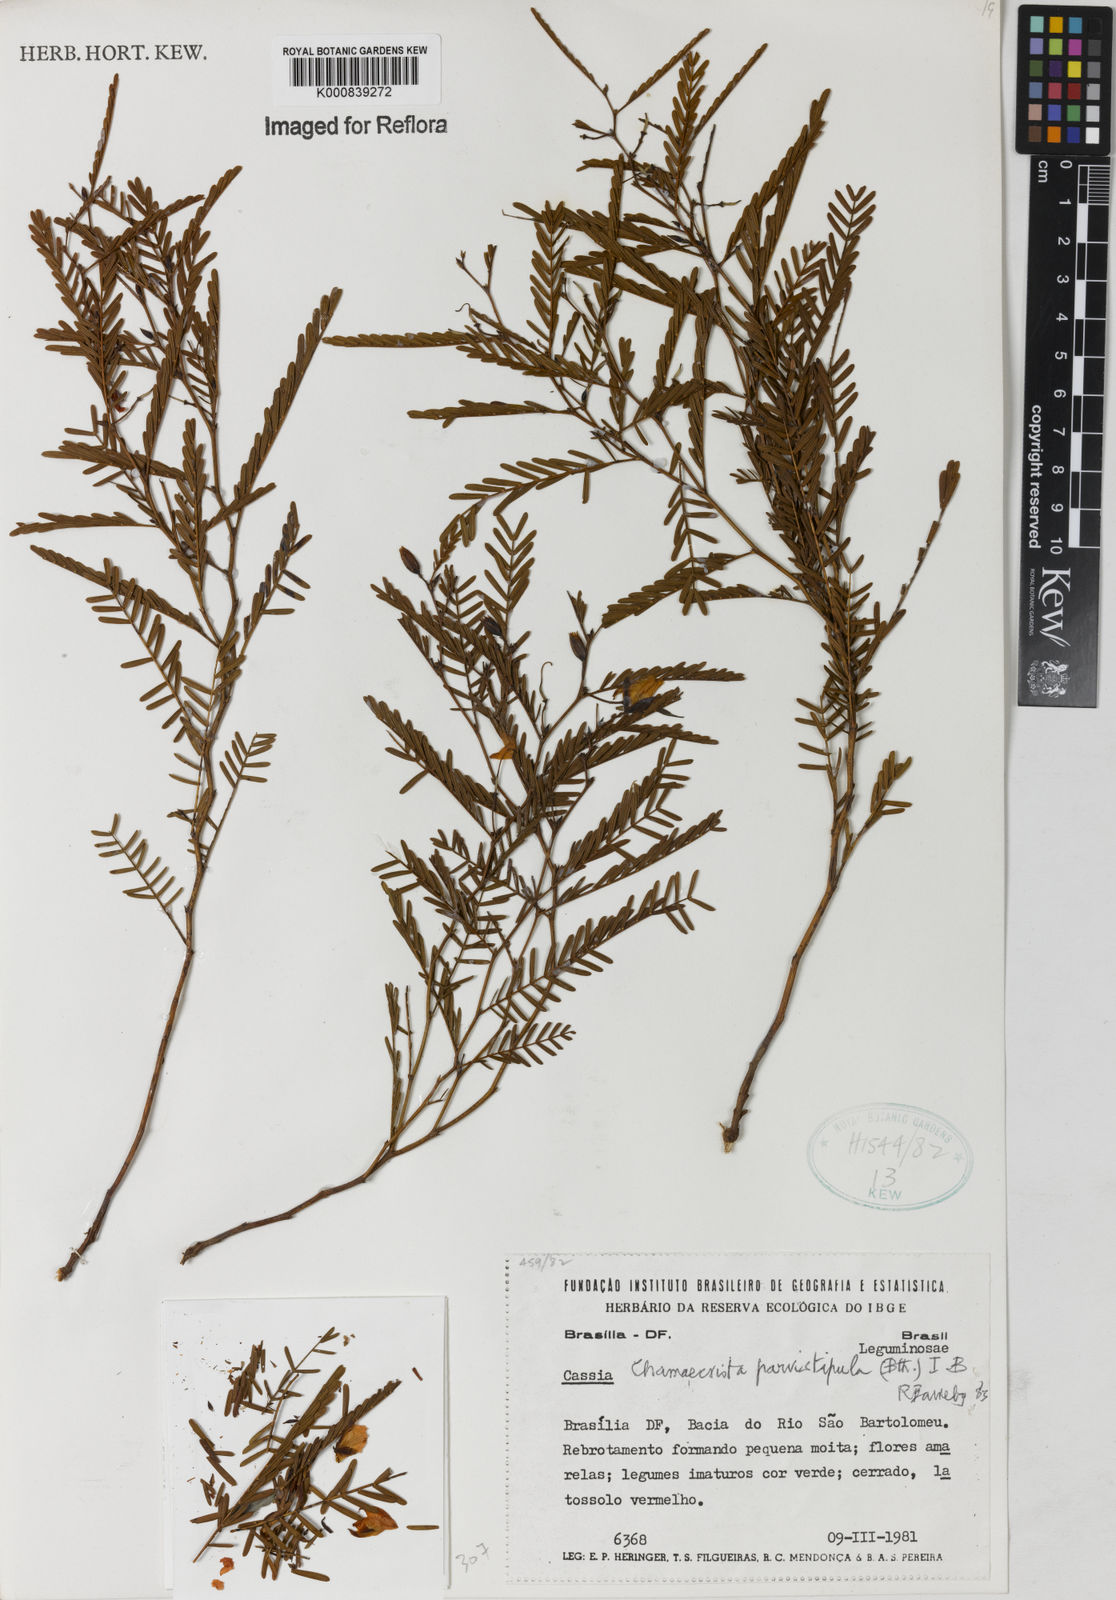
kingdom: Plantae
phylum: Tracheophyta
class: Magnoliopsida
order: Fabales
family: Fabaceae
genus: Chamaecrista
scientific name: Chamaecrista parvistipula
